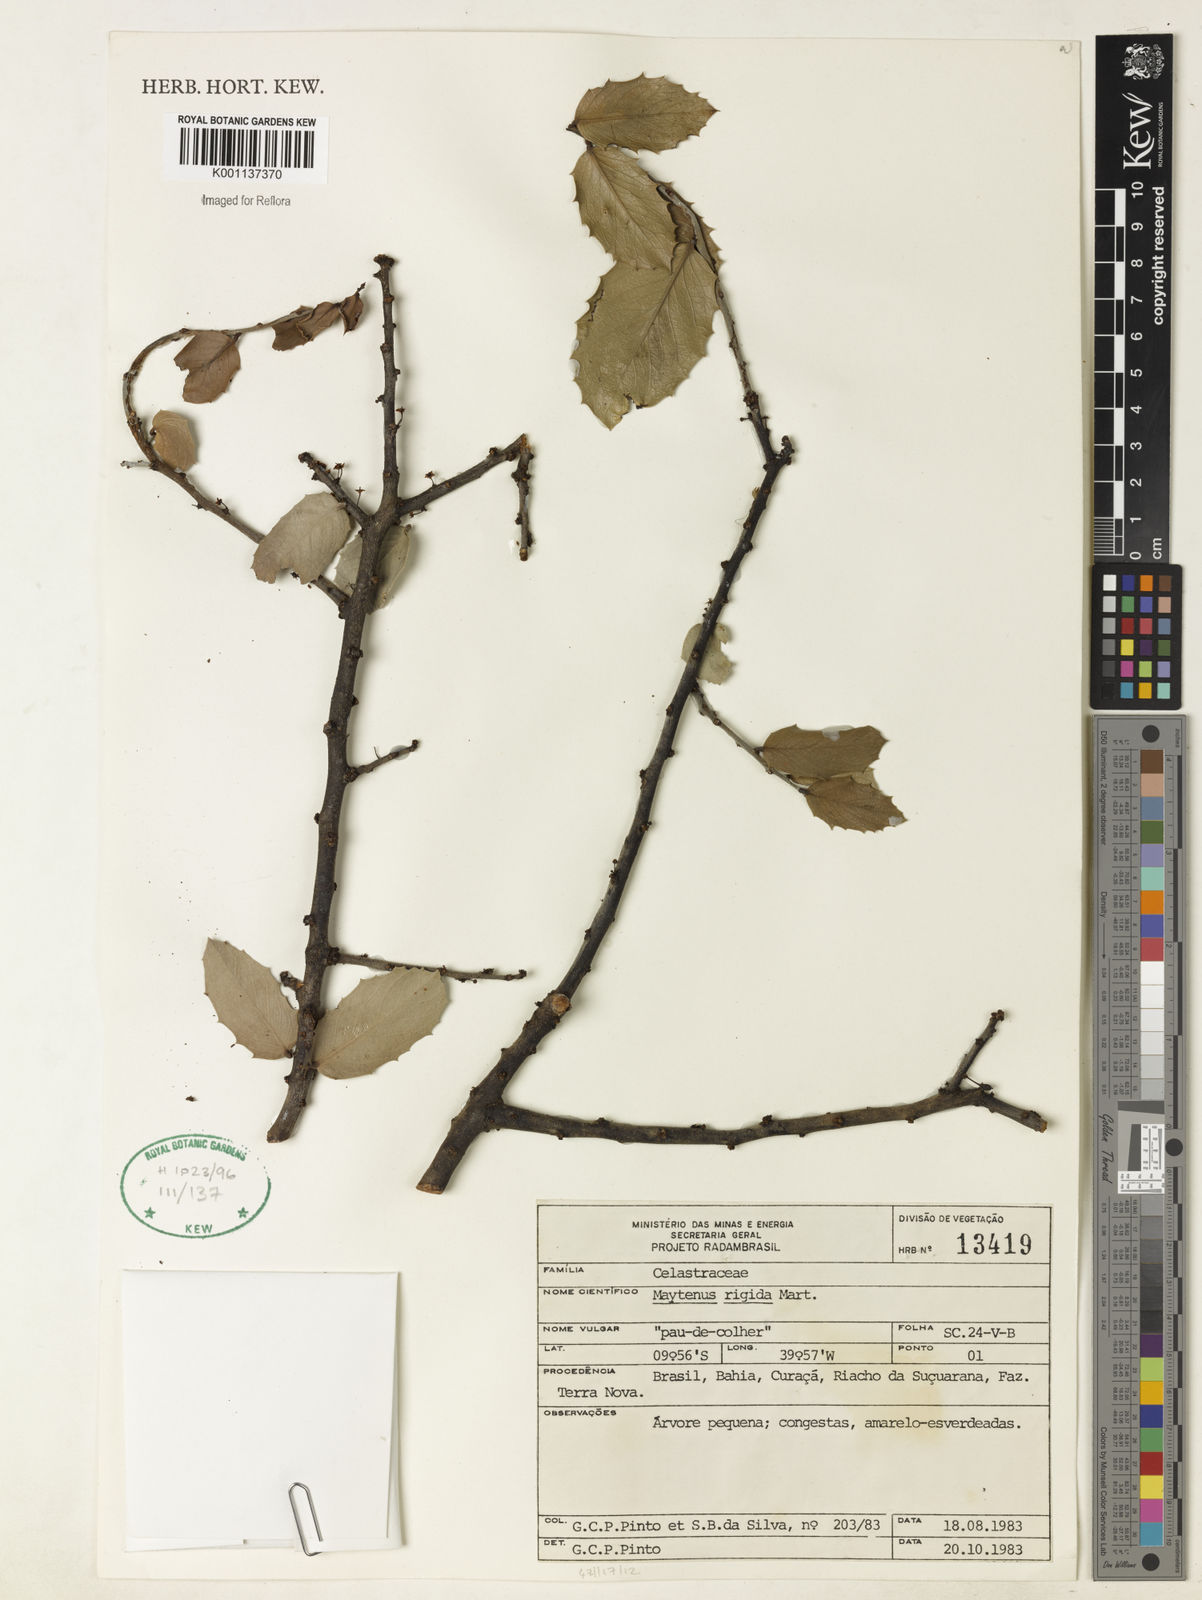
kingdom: Plantae
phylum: Tracheophyta
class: Magnoliopsida
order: Celastrales
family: Celastraceae
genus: Monteverdia
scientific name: Monteverdia rigida
